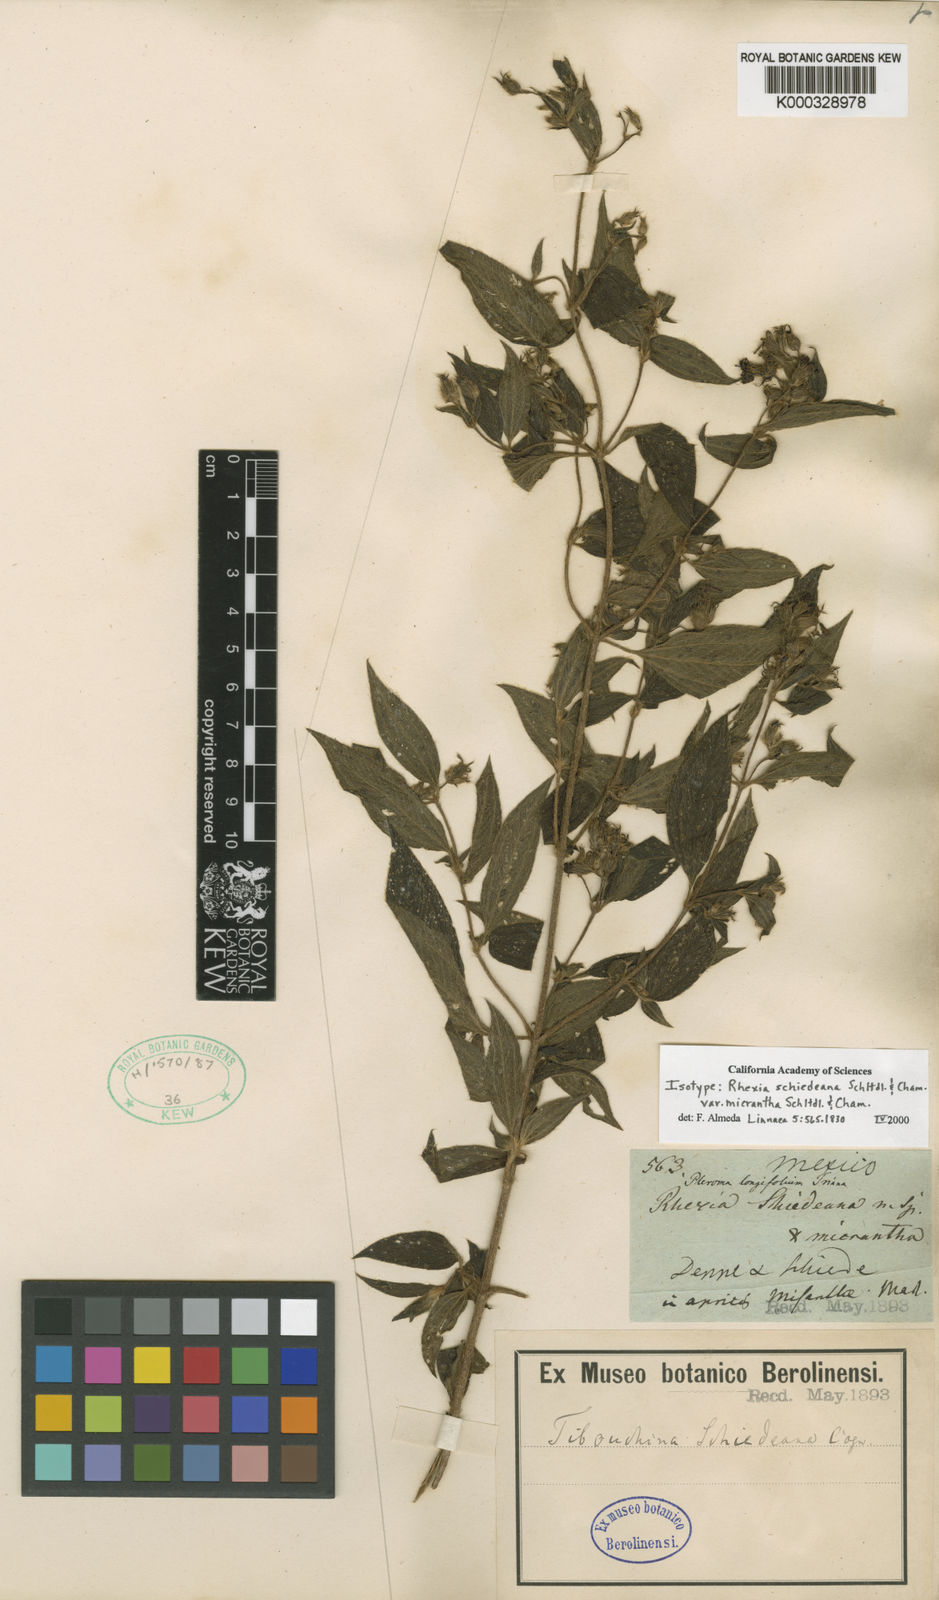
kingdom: Plantae
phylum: Tracheophyta
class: Magnoliopsida
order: Myrtales
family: Melastomataceae
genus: Chaetogastra
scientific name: Chaetogastra schiedeana
